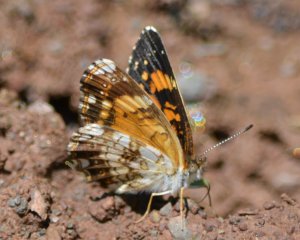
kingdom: Animalia
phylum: Arthropoda
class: Insecta
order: Lepidoptera
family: Nymphalidae
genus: Chlosyne
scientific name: Chlosyne nycteis
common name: Silvery Checkerspot
